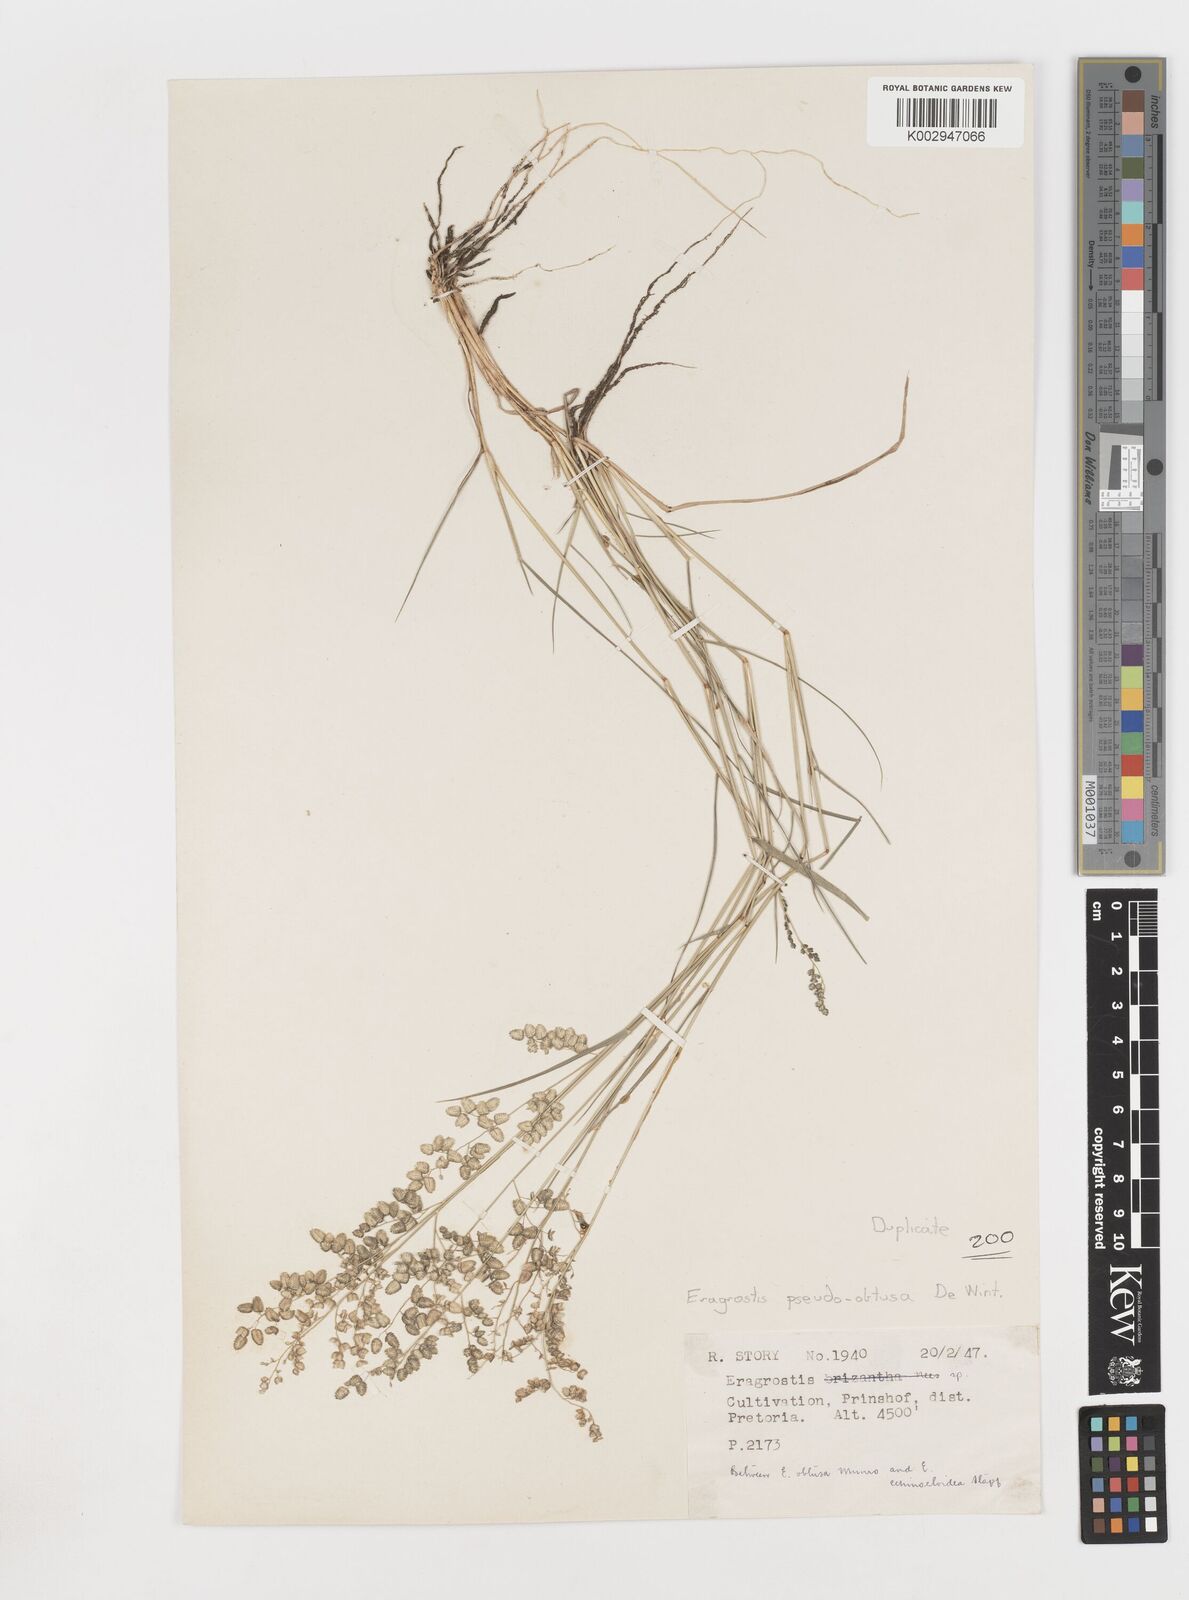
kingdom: Plantae
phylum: Tracheophyta
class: Liliopsida
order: Poales
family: Poaceae
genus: Eragrostis
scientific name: Eragrostis pseudobtusa
